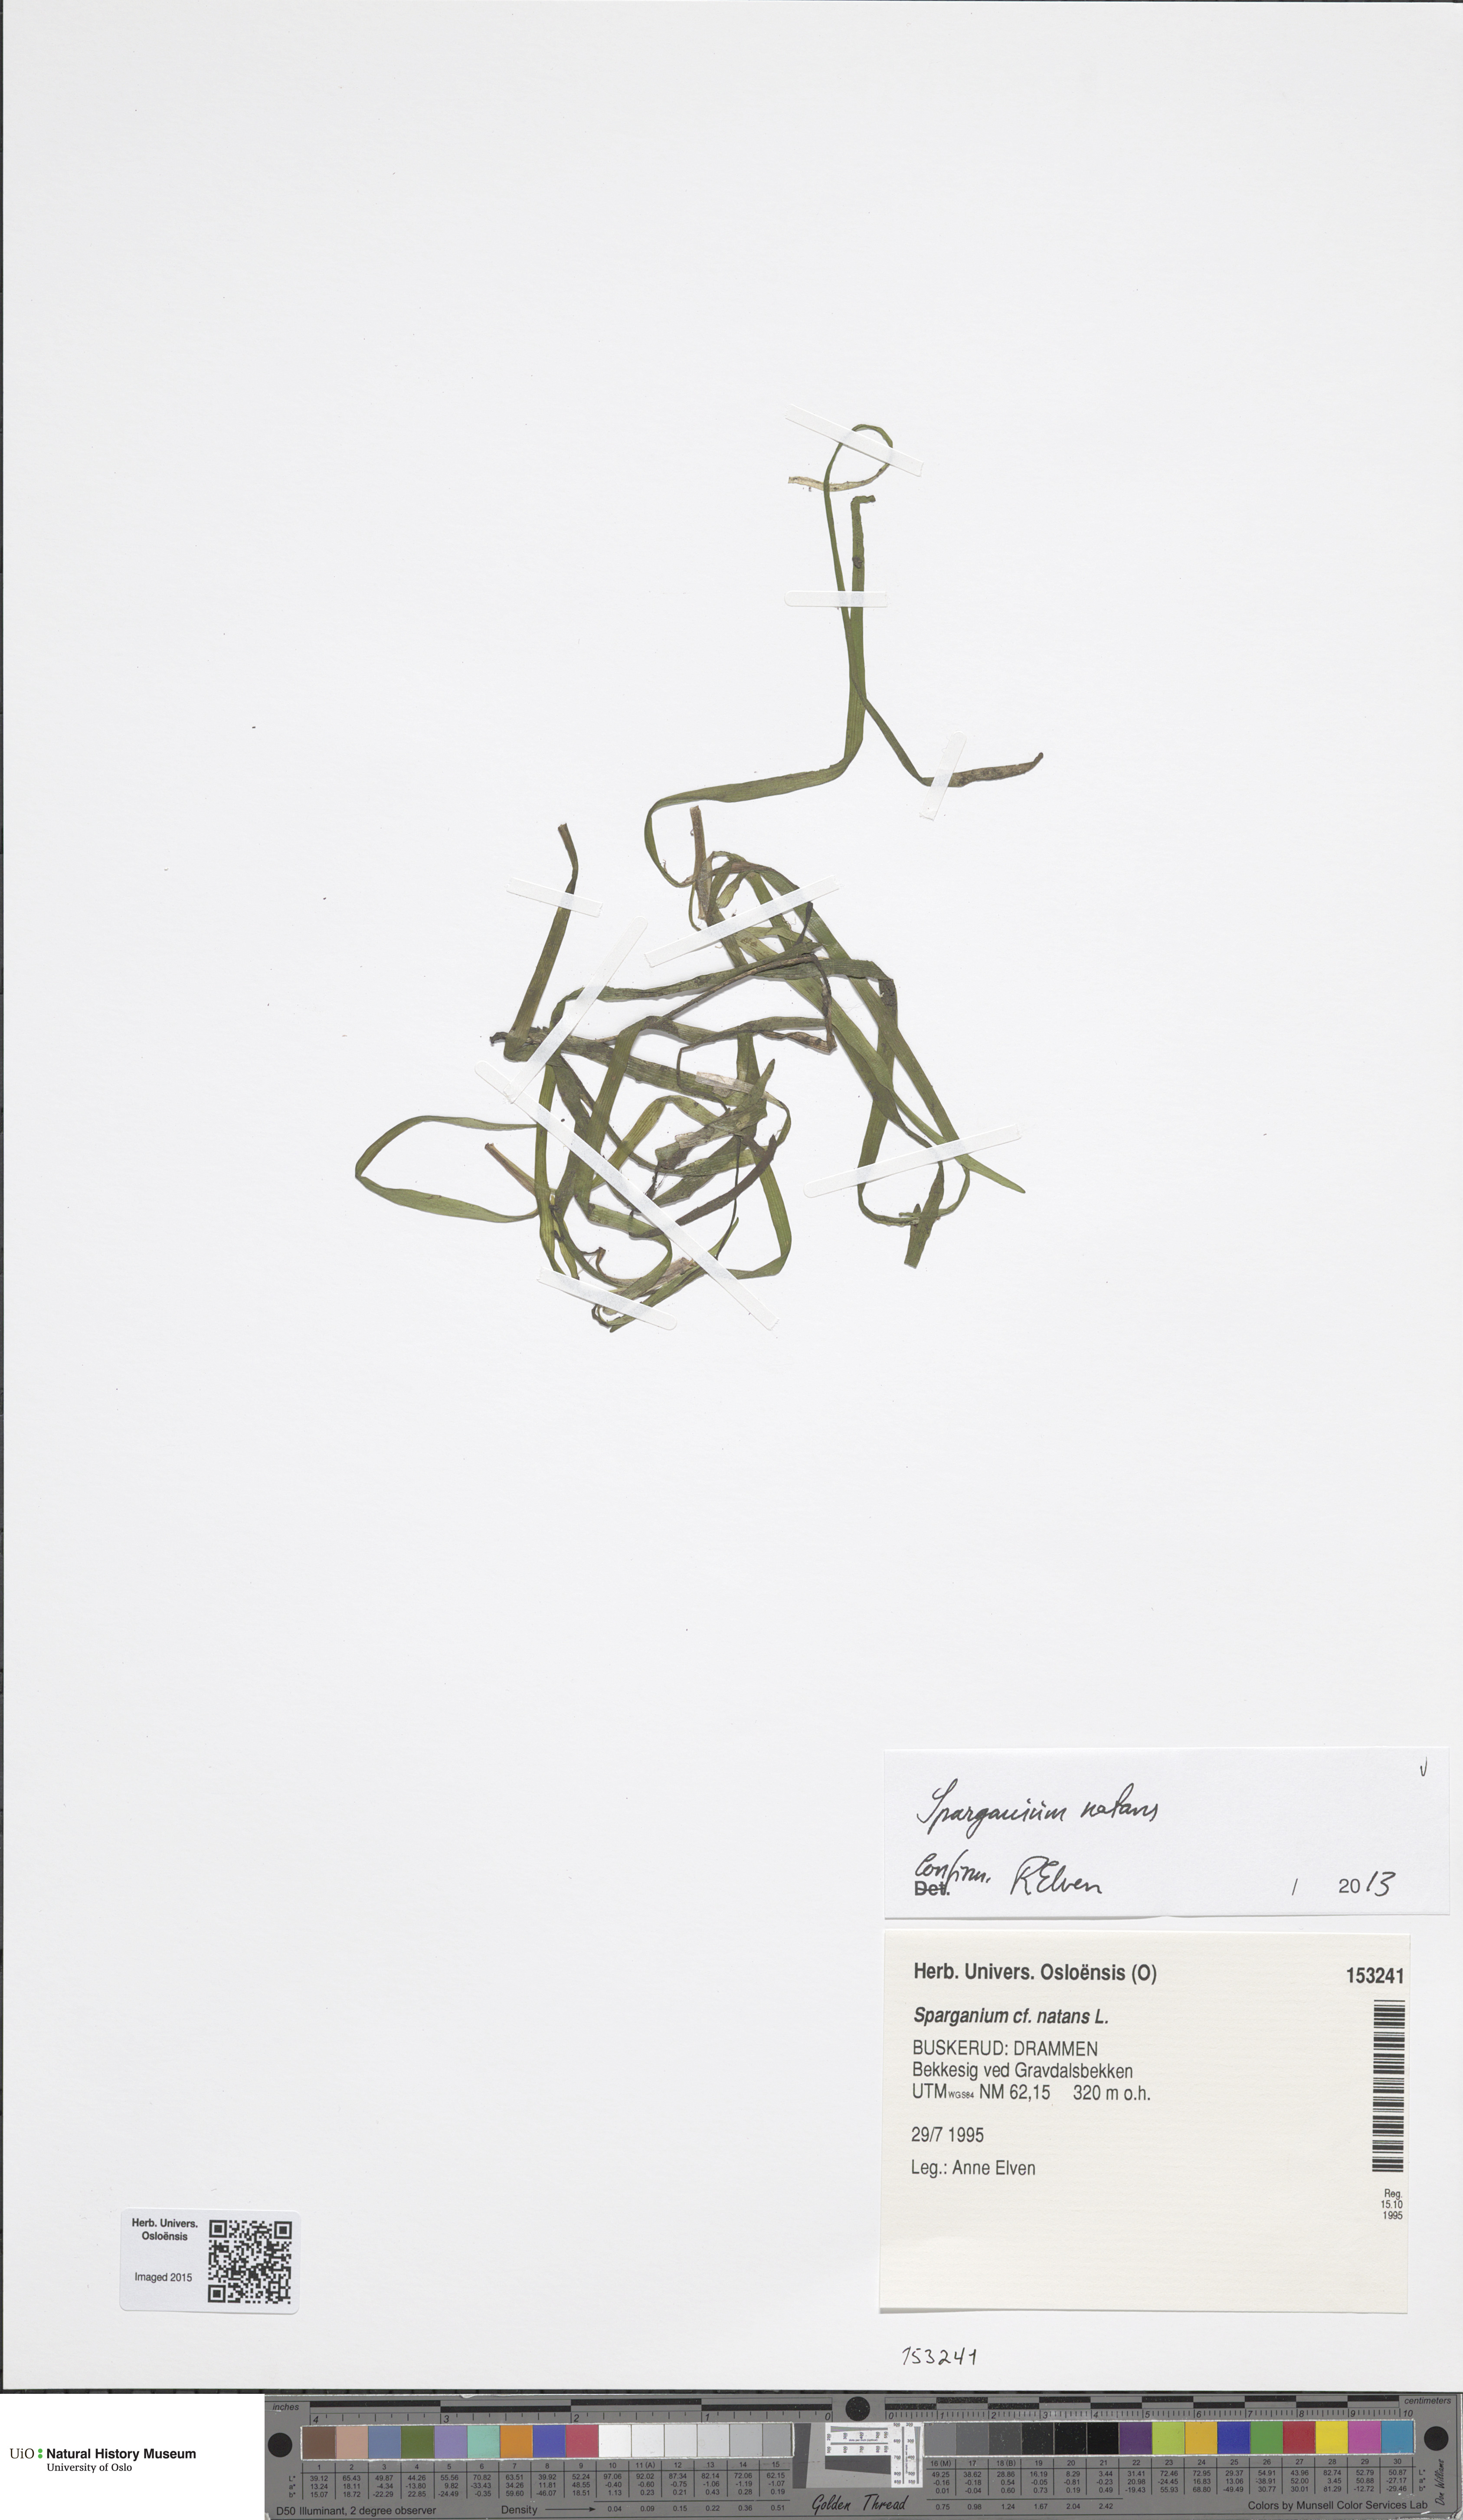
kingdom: Plantae
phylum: Tracheophyta
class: Liliopsida
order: Poales
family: Typhaceae
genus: Sparganium
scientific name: Sparganium natans
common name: Least bur-reed
